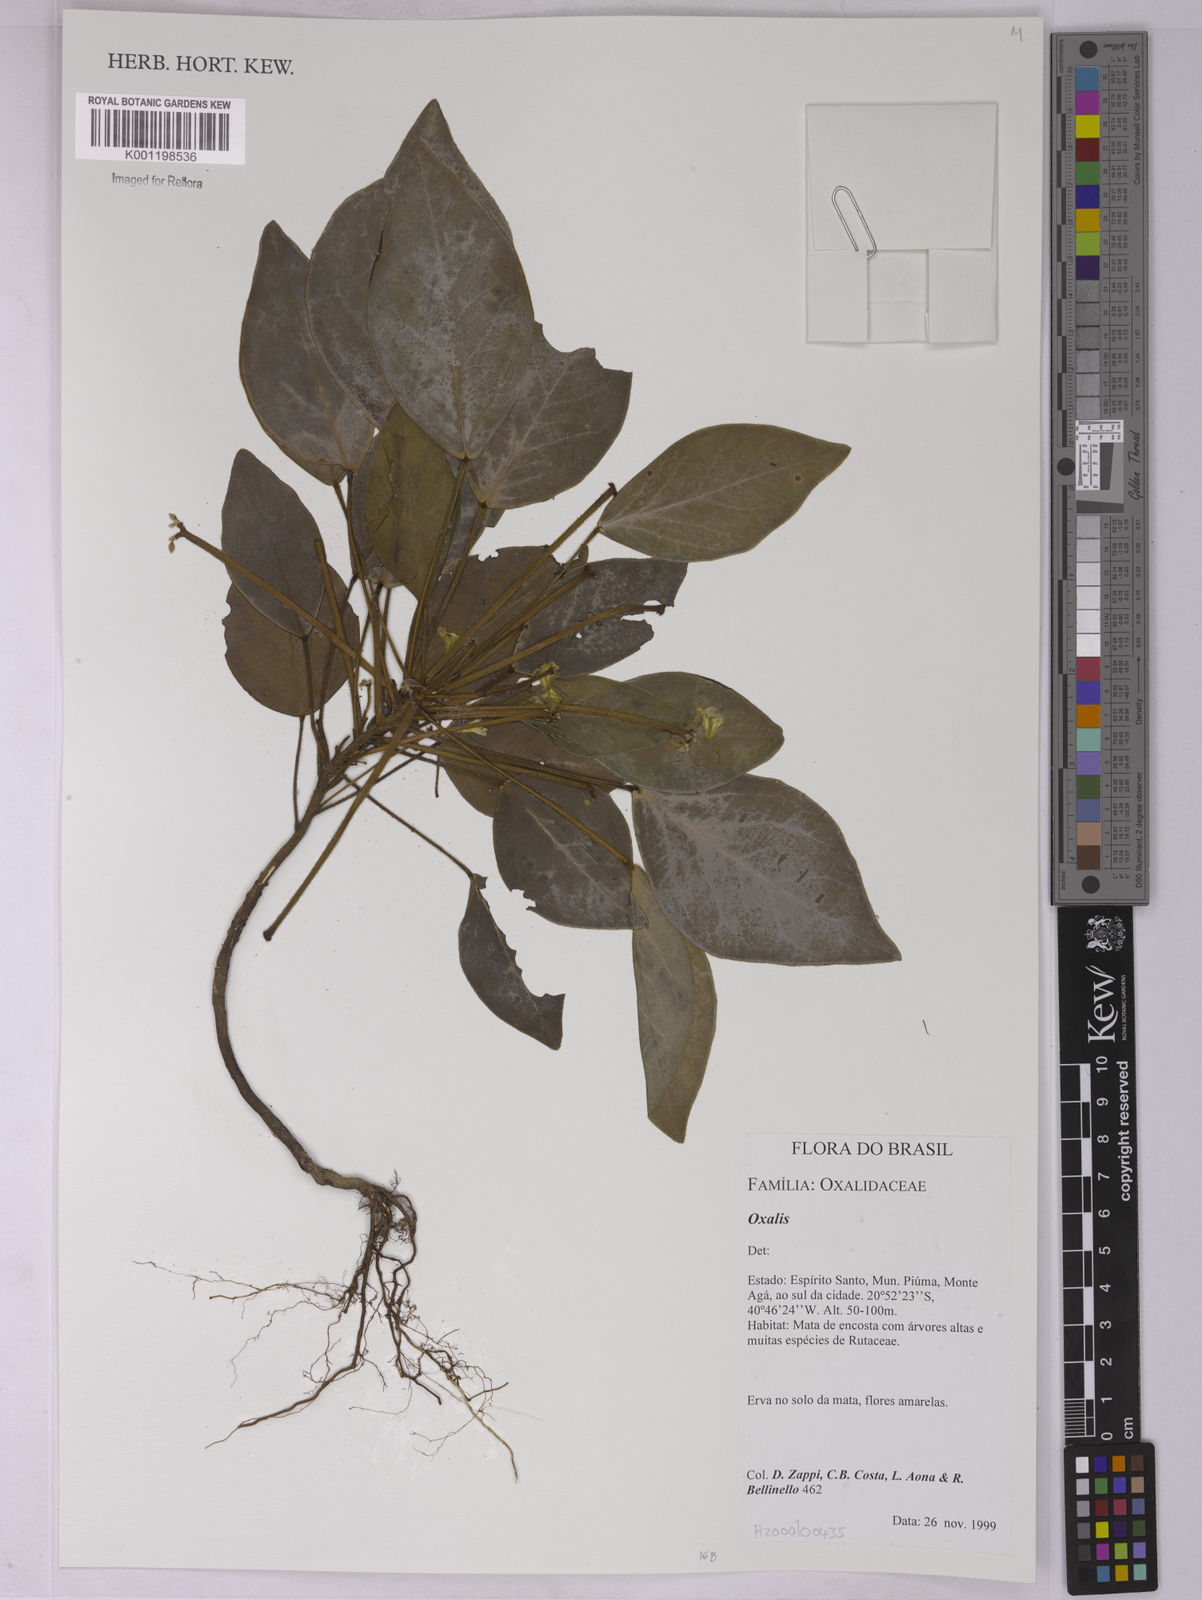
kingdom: Plantae
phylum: Tracheophyta
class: Magnoliopsida
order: Oxalidales
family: Oxalidaceae
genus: Oxalis
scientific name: Oxalis
